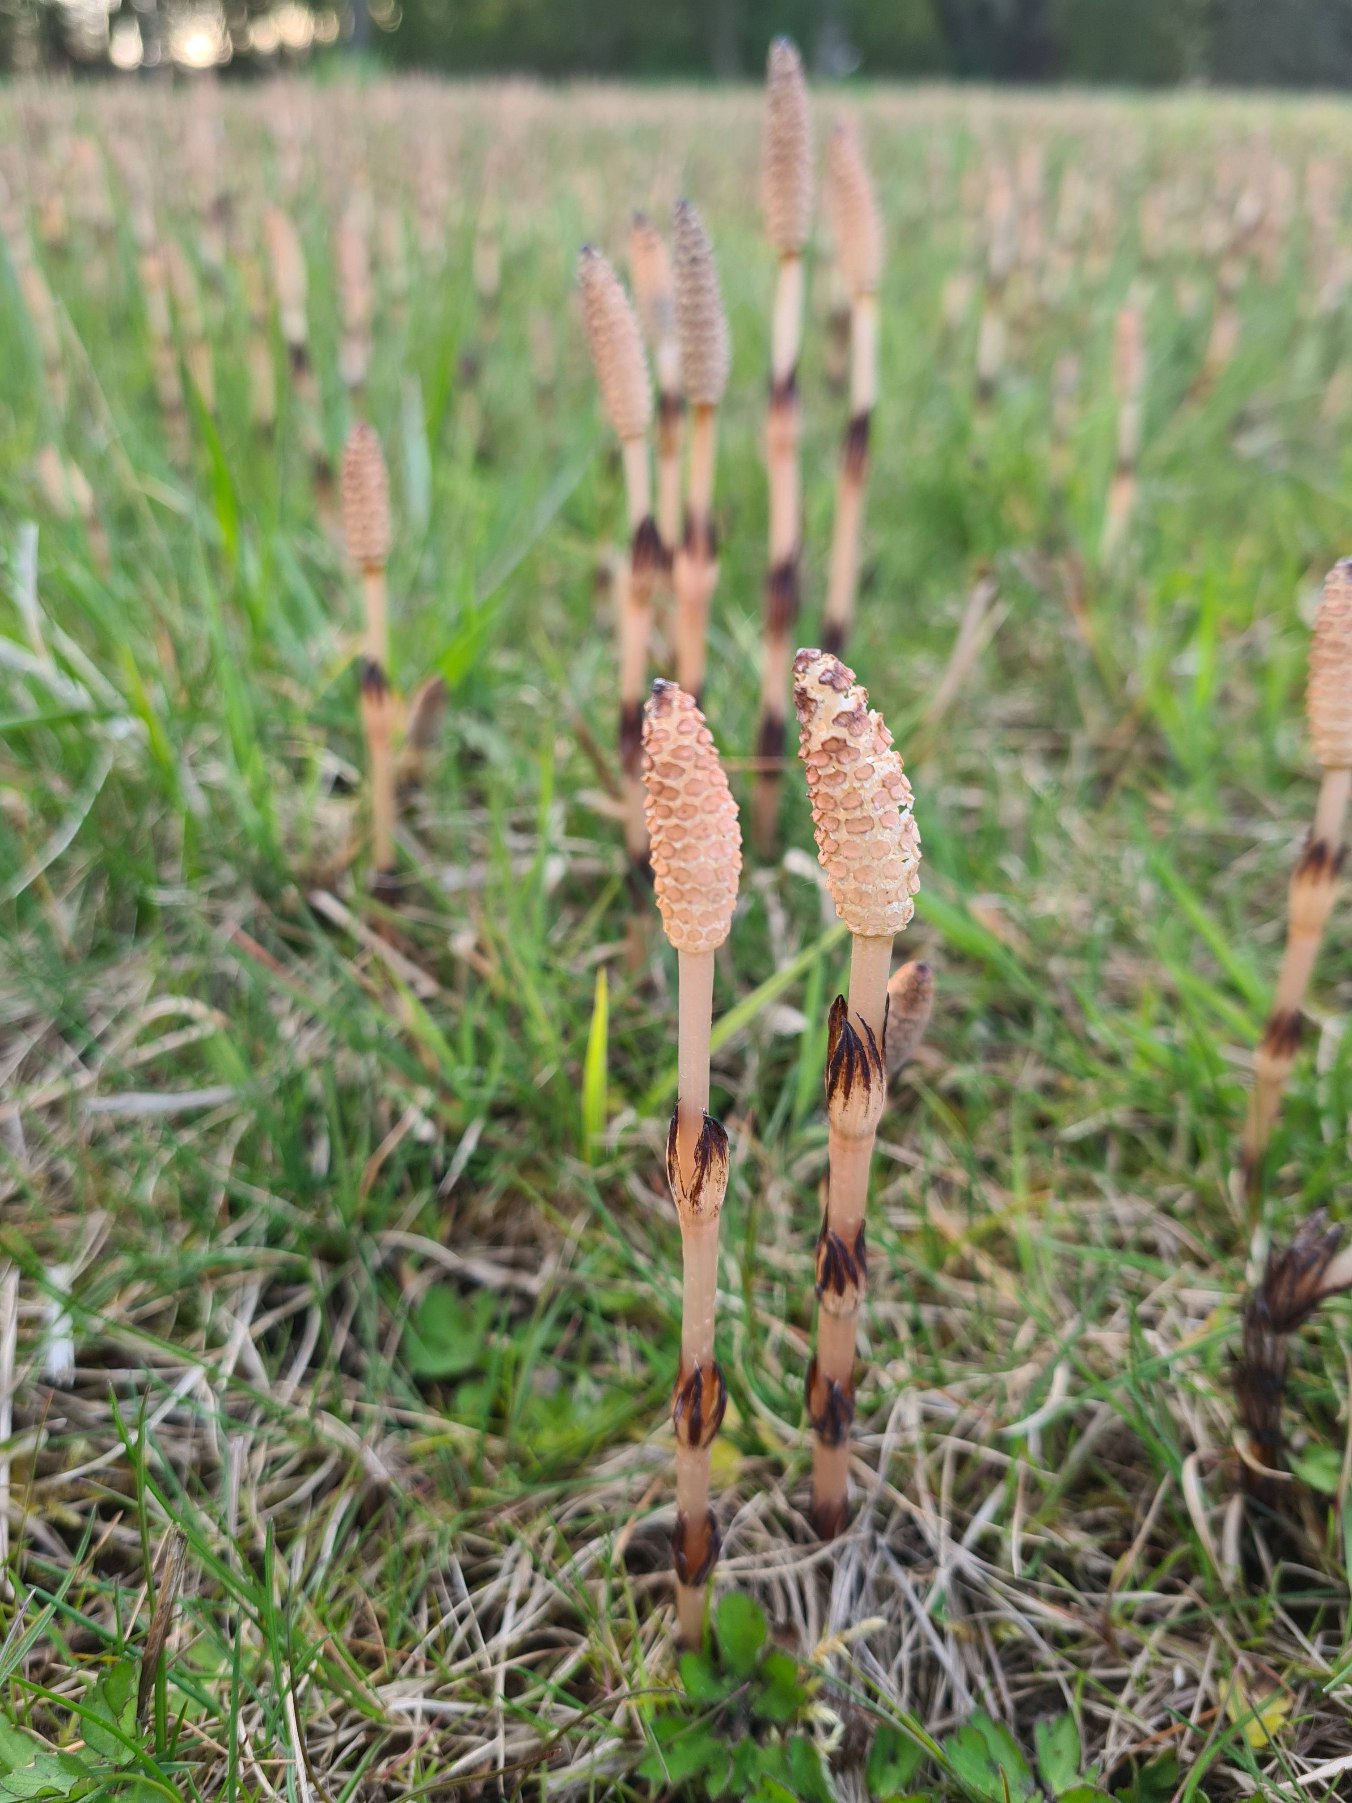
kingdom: Plantae
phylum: Tracheophyta
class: Polypodiopsida
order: Equisetales
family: Equisetaceae
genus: Equisetum
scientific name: Equisetum arvense
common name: Ager-padderok
